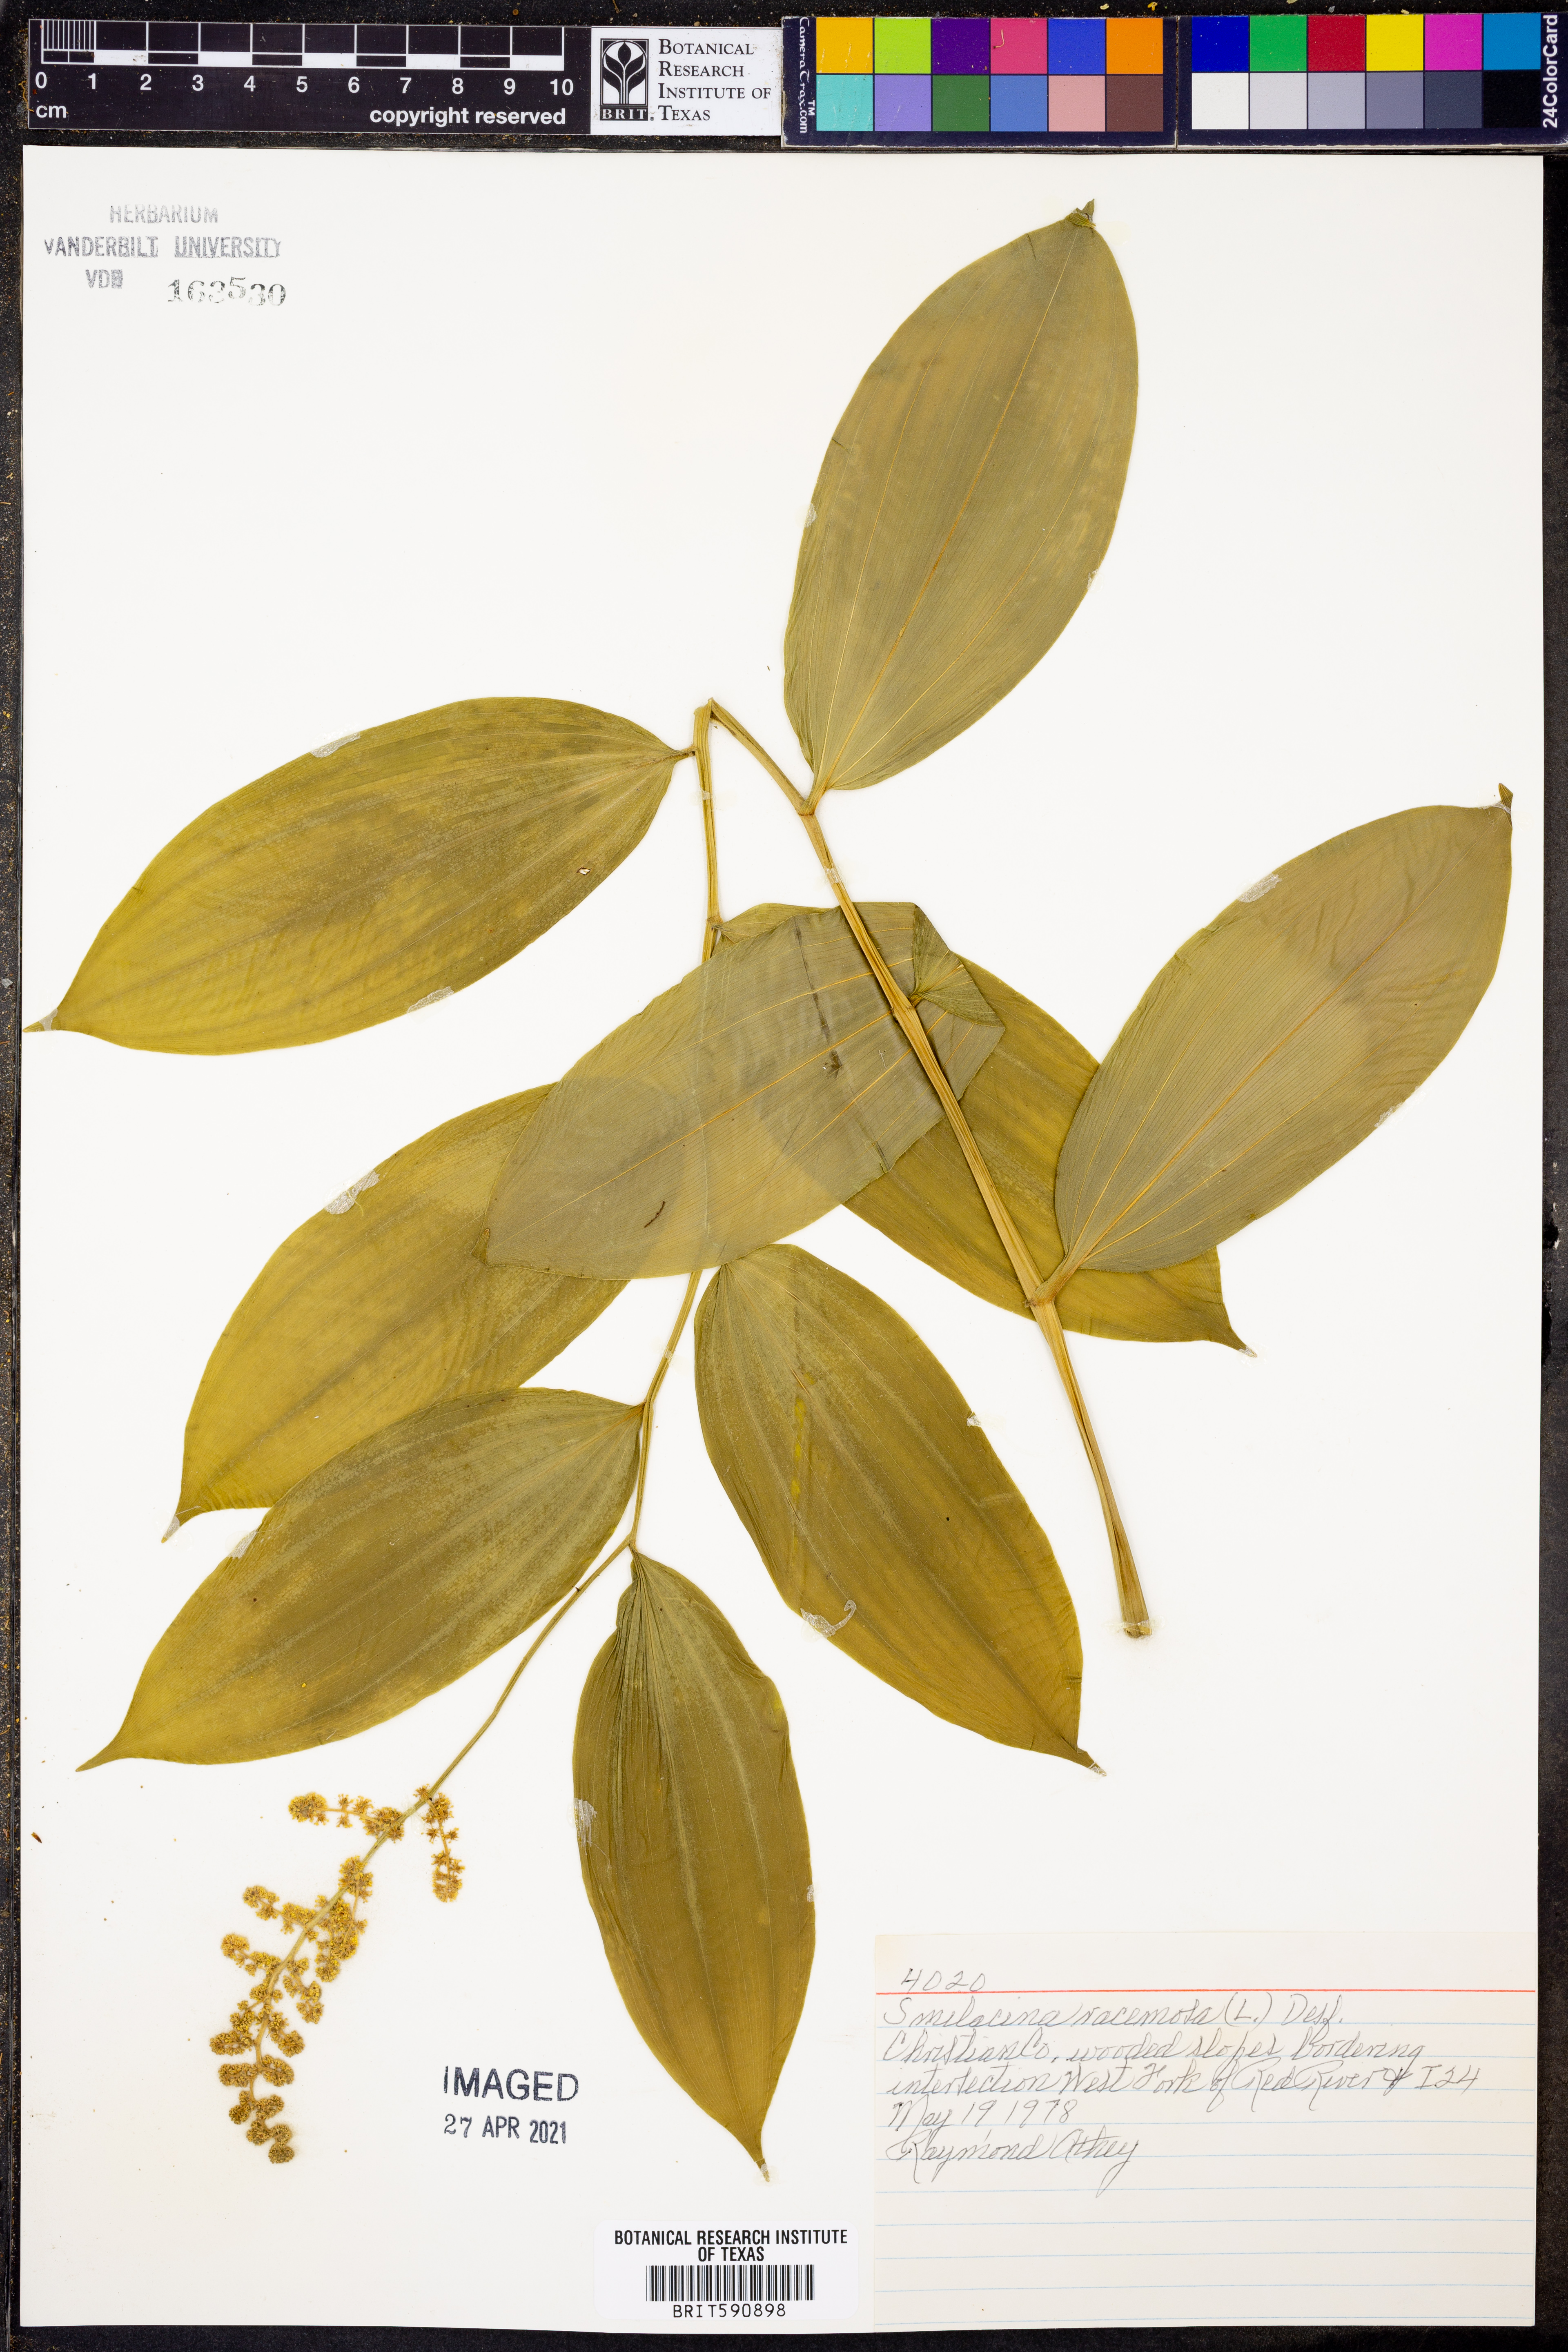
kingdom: Plantae
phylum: Tracheophyta
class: Liliopsida
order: Asparagales
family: Asparagaceae
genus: Maianthemum
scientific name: Maianthemum racemosum
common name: False spikenard
